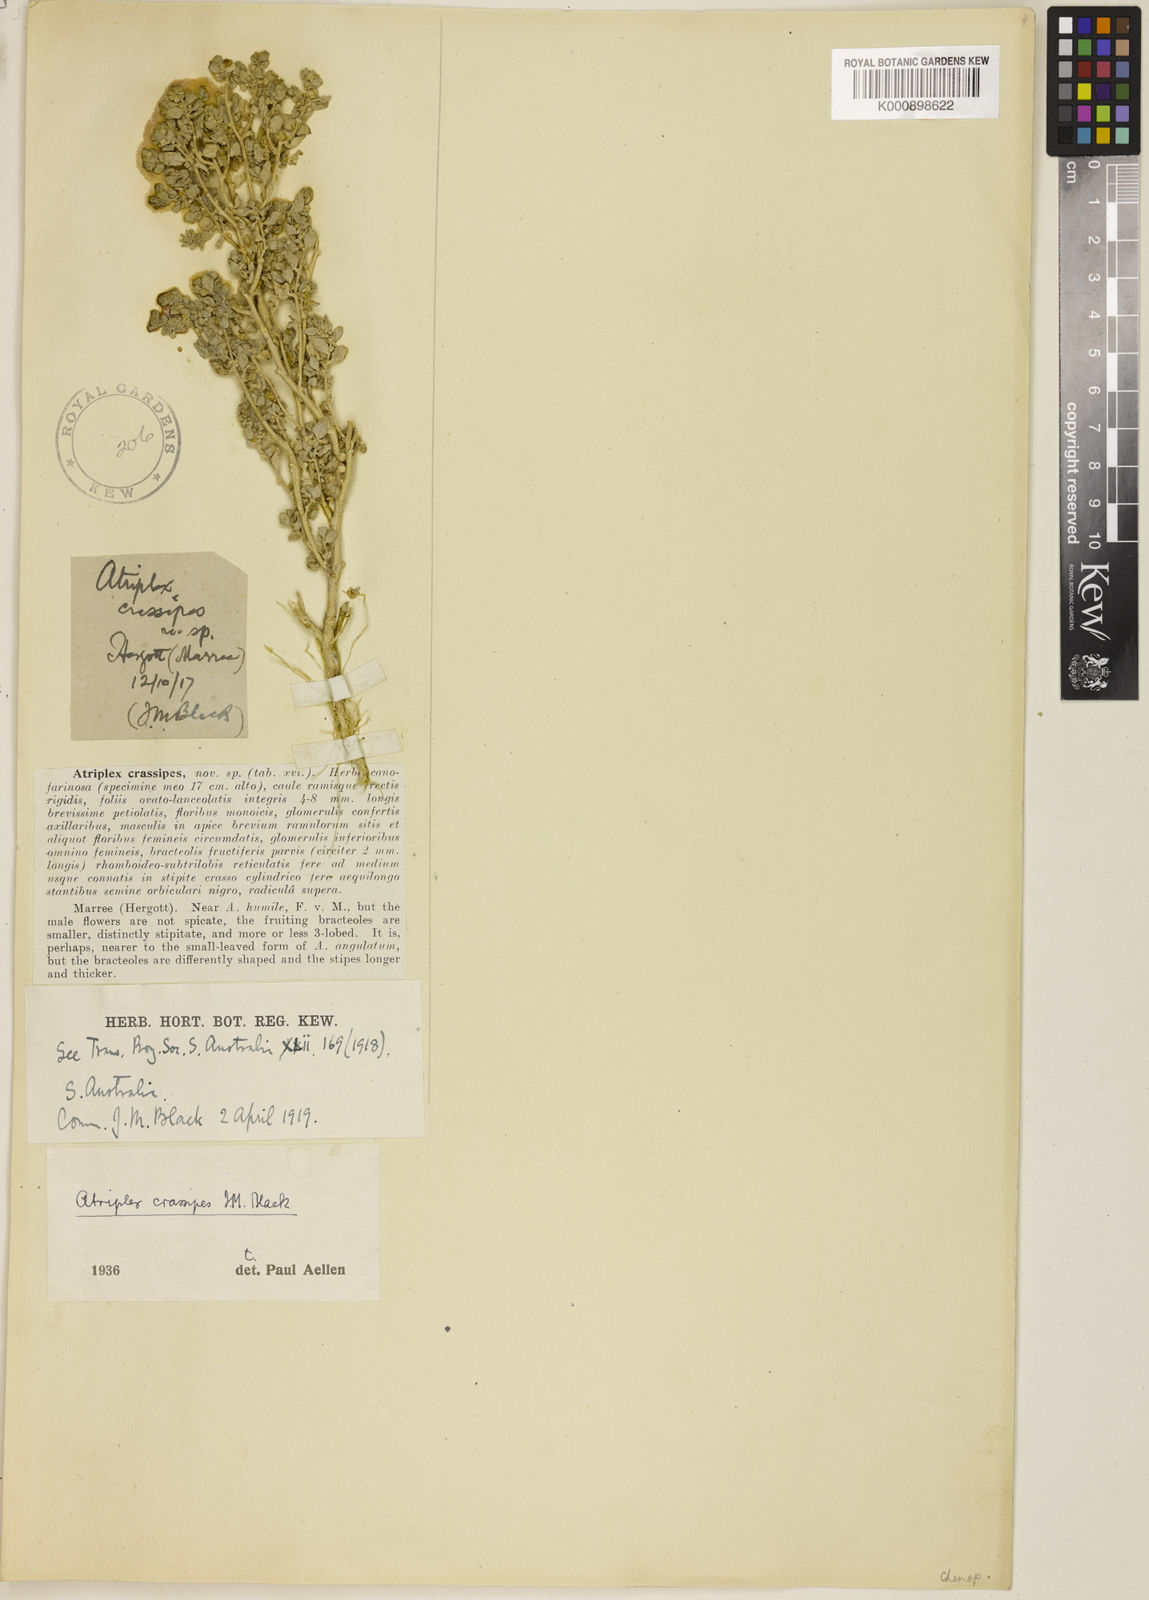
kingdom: Plantae
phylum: Tracheophyta
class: Magnoliopsida
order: Caryophyllales
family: Amaranthaceae
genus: Atriplex
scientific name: Atriplex crassipes
